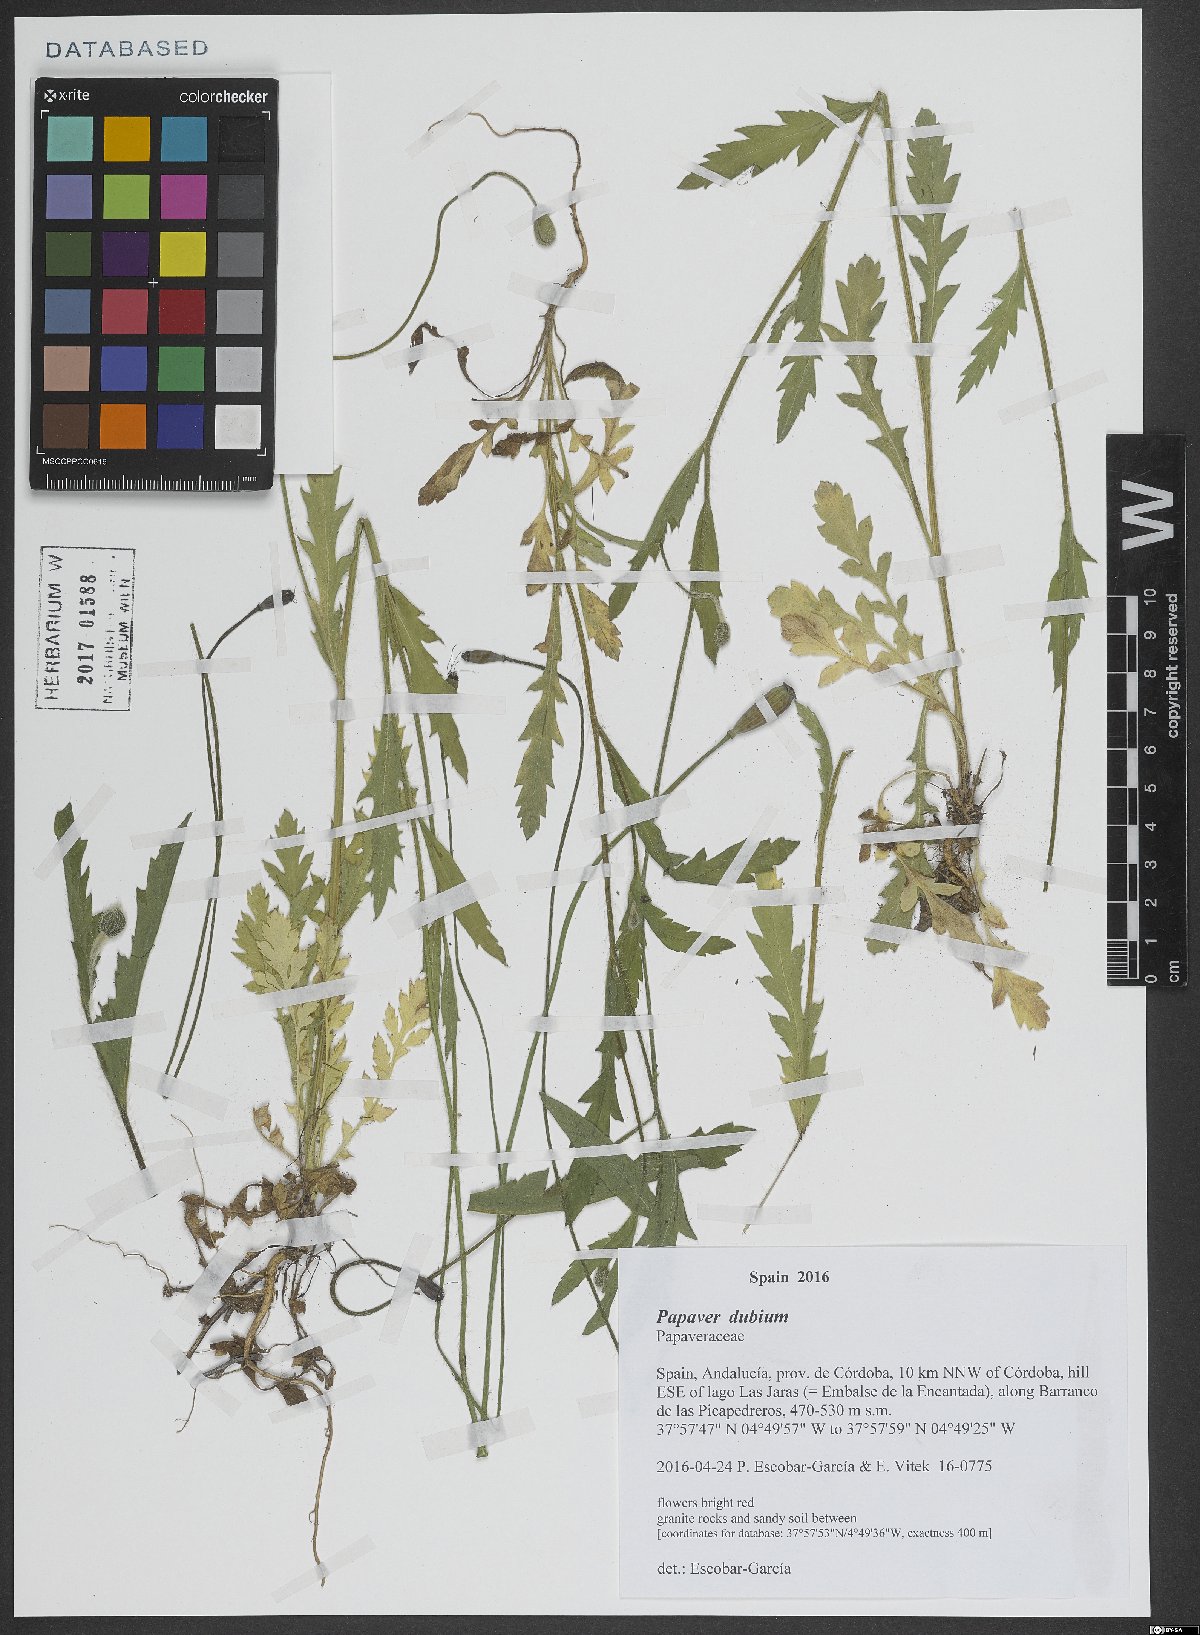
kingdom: Plantae
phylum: Tracheophyta
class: Magnoliopsida
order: Ranunculales
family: Papaveraceae
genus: Papaver
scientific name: Papaver dubium
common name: Long-headed poppy
